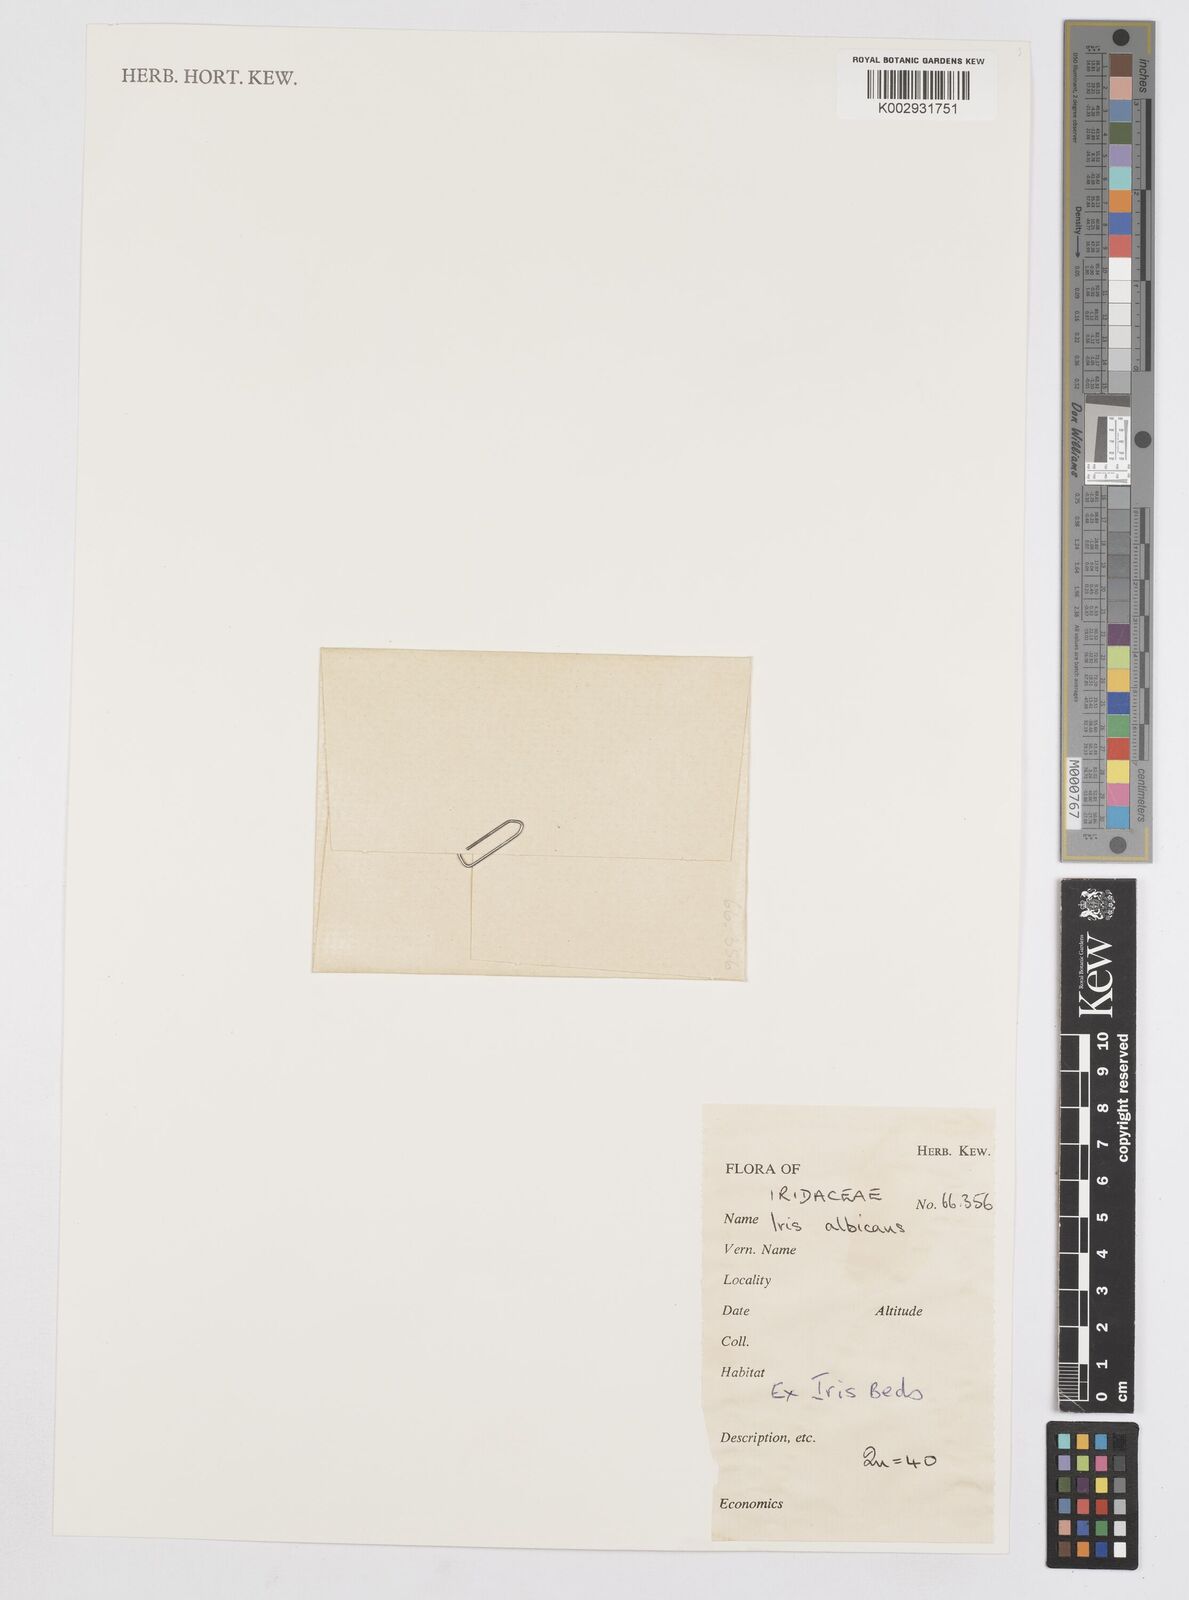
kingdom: Plantae
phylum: Tracheophyta
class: Liliopsida
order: Asparagales
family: Iridaceae
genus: Iris
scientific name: Iris florentina
